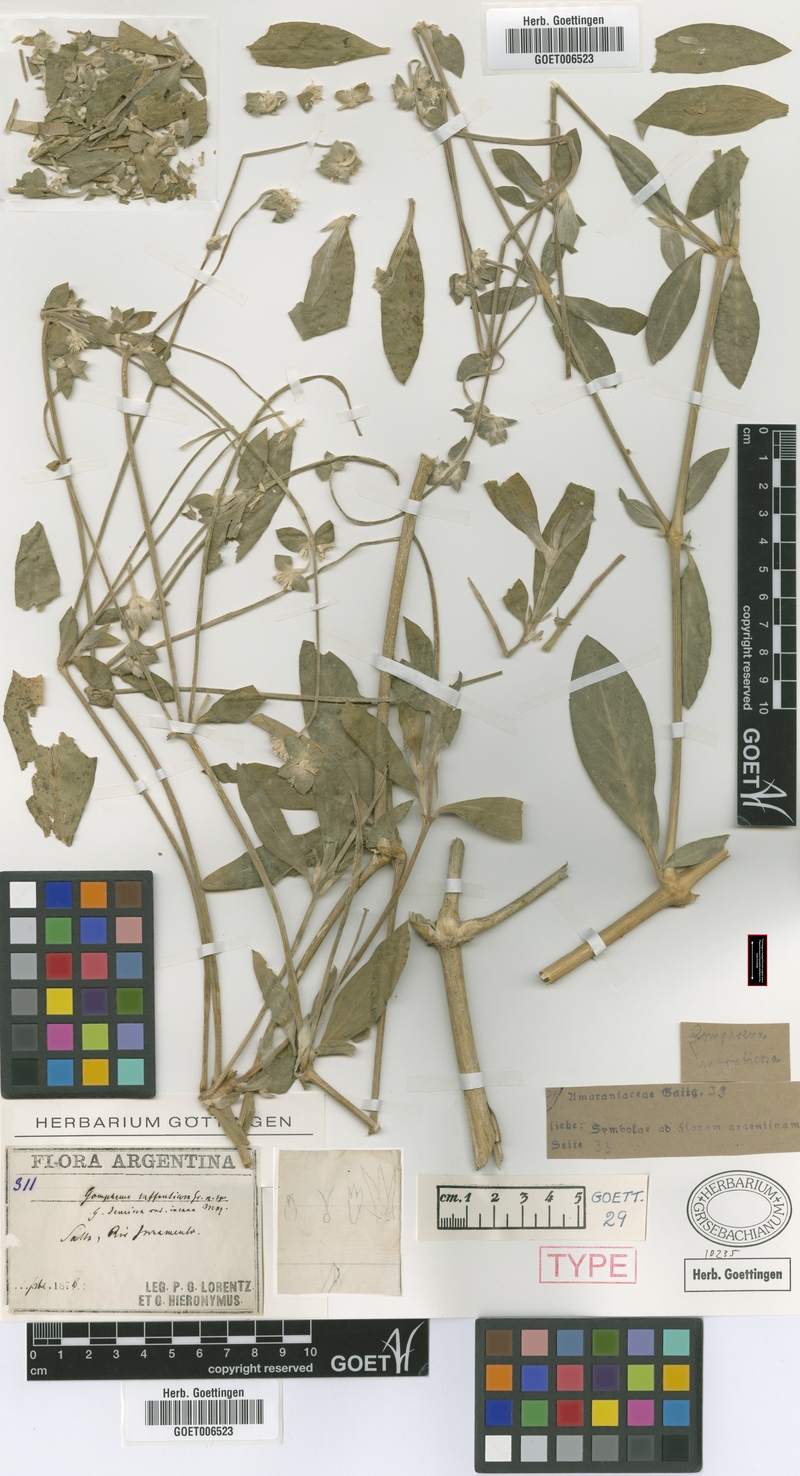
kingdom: Plantae
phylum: Tracheophyta
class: Magnoliopsida
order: Caryophyllales
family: Amaranthaceae
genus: Gomphrena
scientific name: Gomphrena perennis
